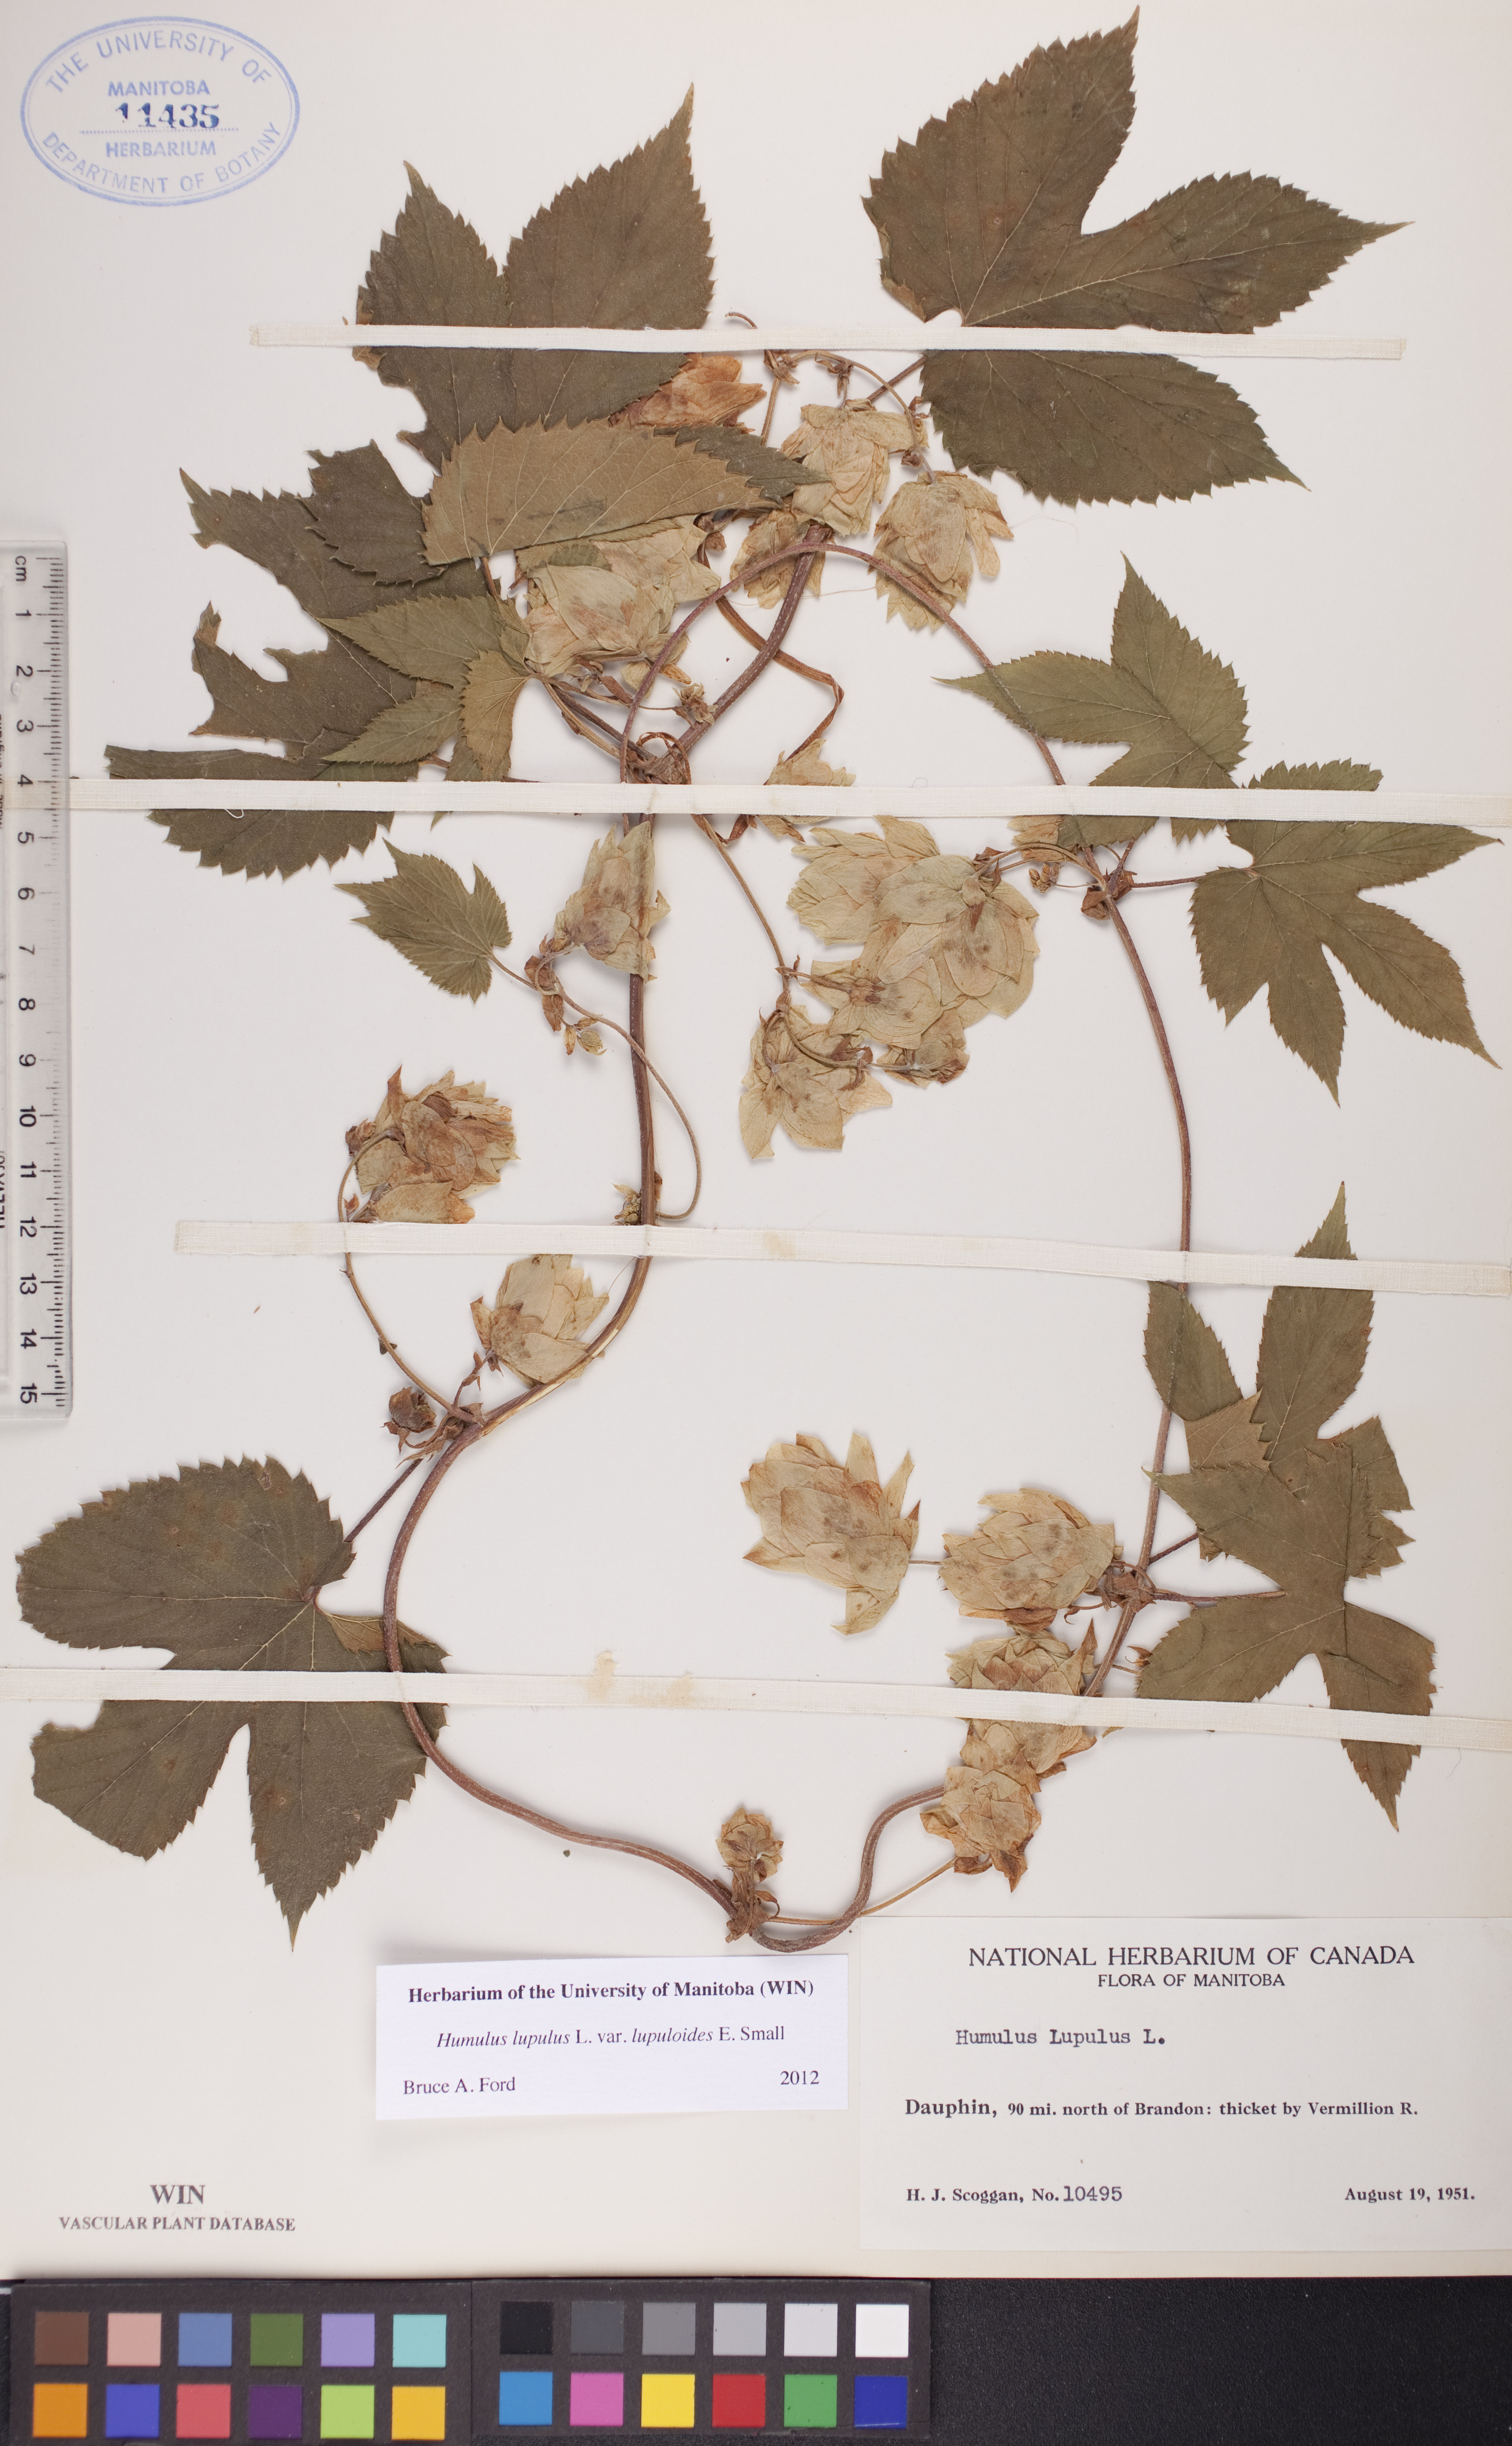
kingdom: Plantae
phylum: Tracheophyta
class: Magnoliopsida
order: Rosales
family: Cannabaceae
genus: Humulus
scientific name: Humulus americanus
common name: American hops
